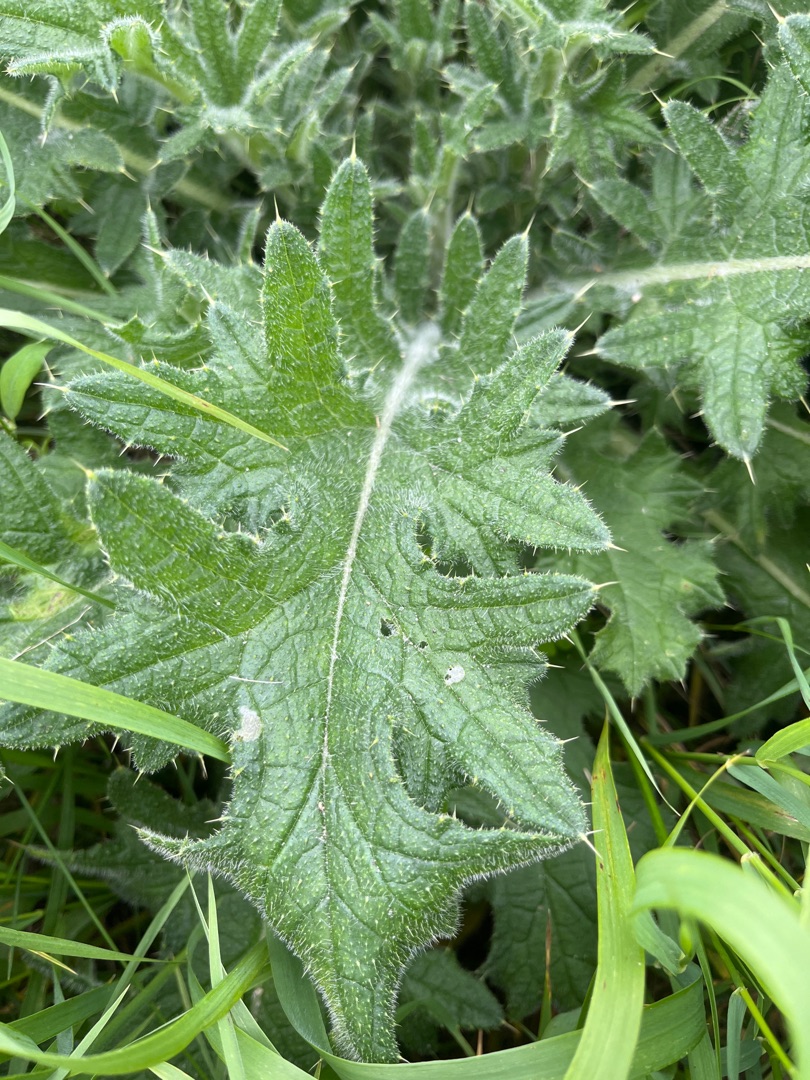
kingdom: Plantae
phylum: Tracheophyta
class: Magnoliopsida
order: Asterales
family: Asteraceae
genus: Cirsium
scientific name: Cirsium vulgare
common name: Horse-tidsel
